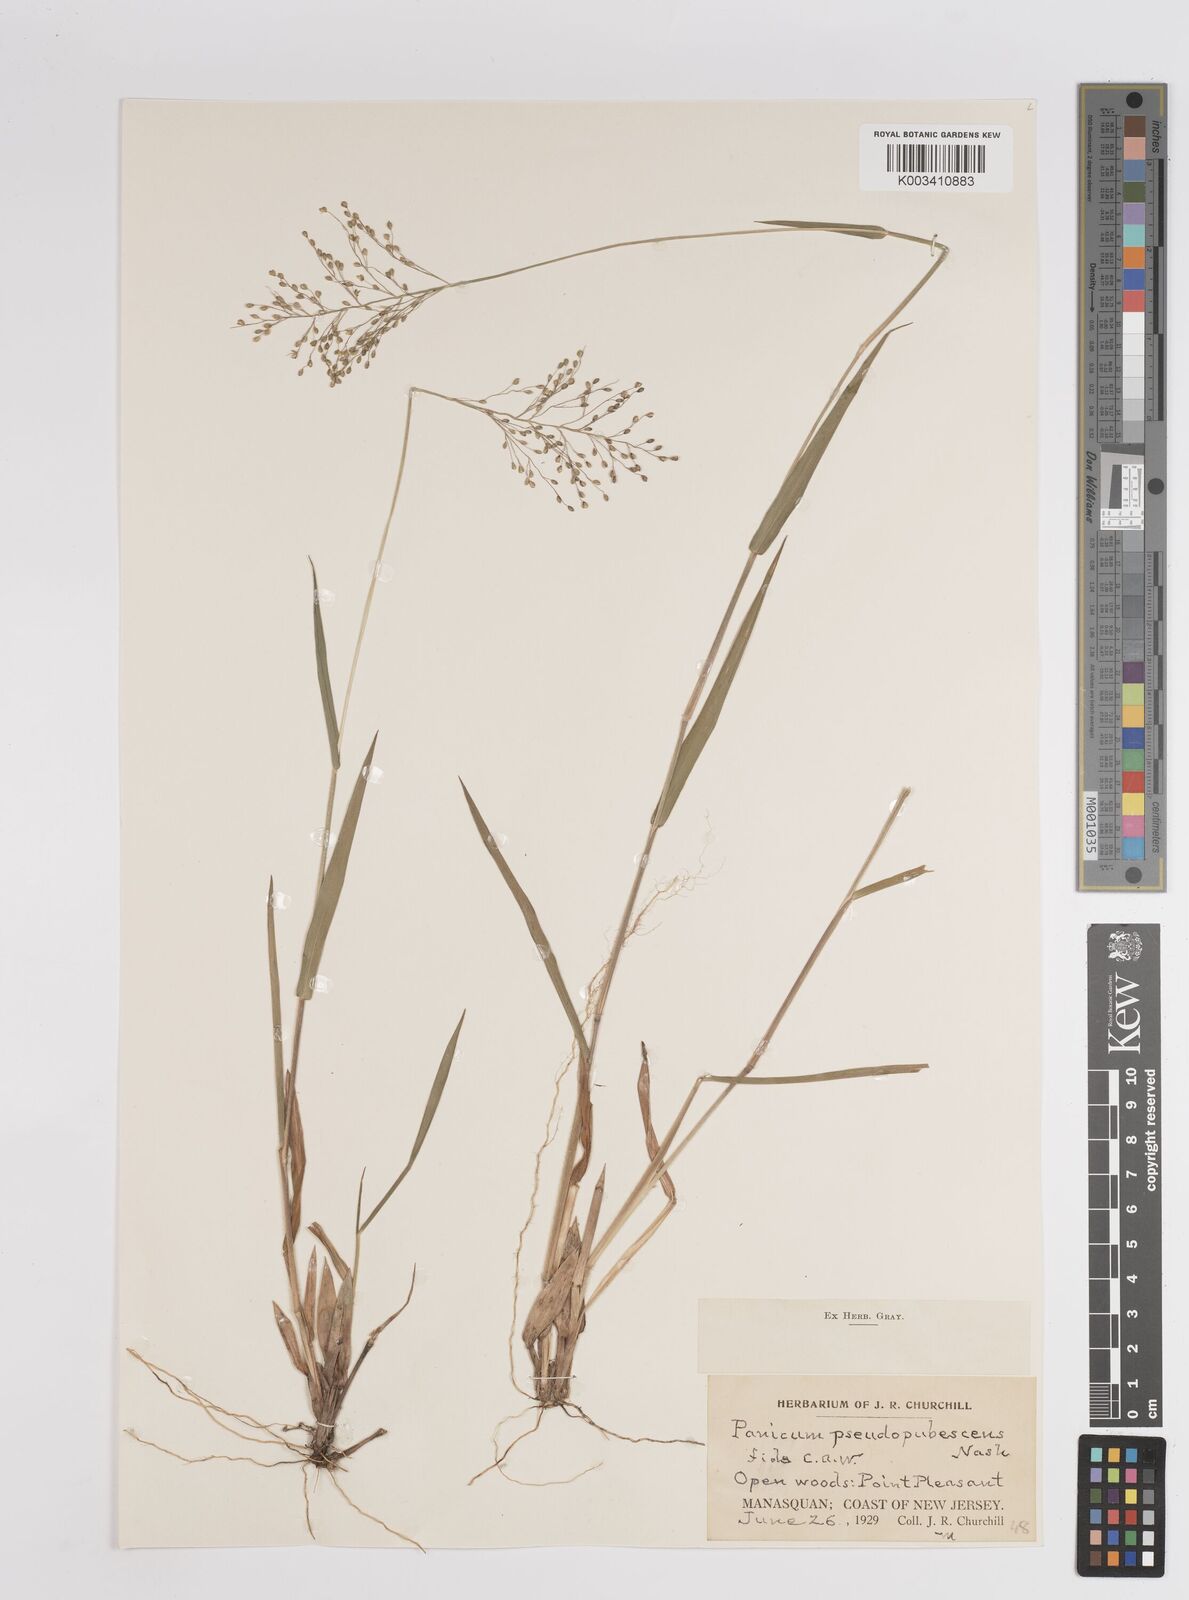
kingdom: Plantae
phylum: Tracheophyta
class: Liliopsida
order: Poales
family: Poaceae
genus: Dichanthelium
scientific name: Dichanthelium villosissimum
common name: White-haired panicgrass
